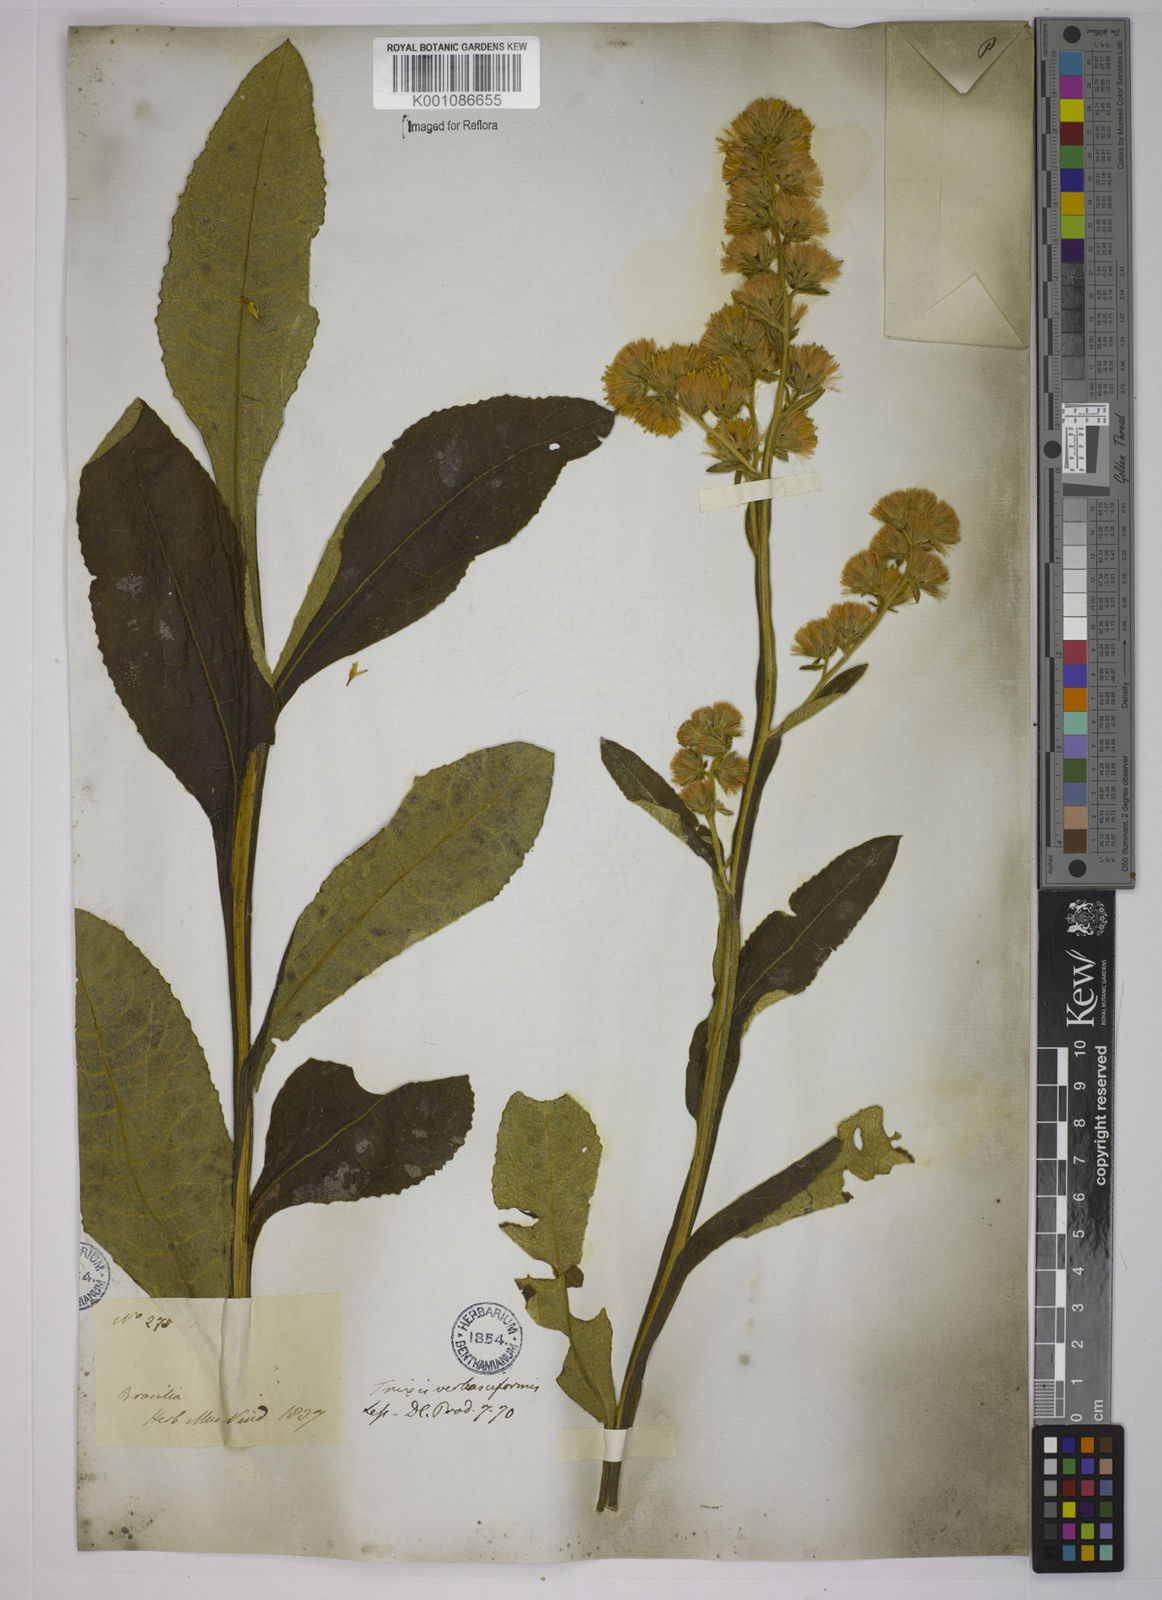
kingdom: Plantae
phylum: Tracheophyta
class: Magnoliopsida
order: Asterales
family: Asteraceae
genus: Trixis
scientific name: Trixis nobilis
